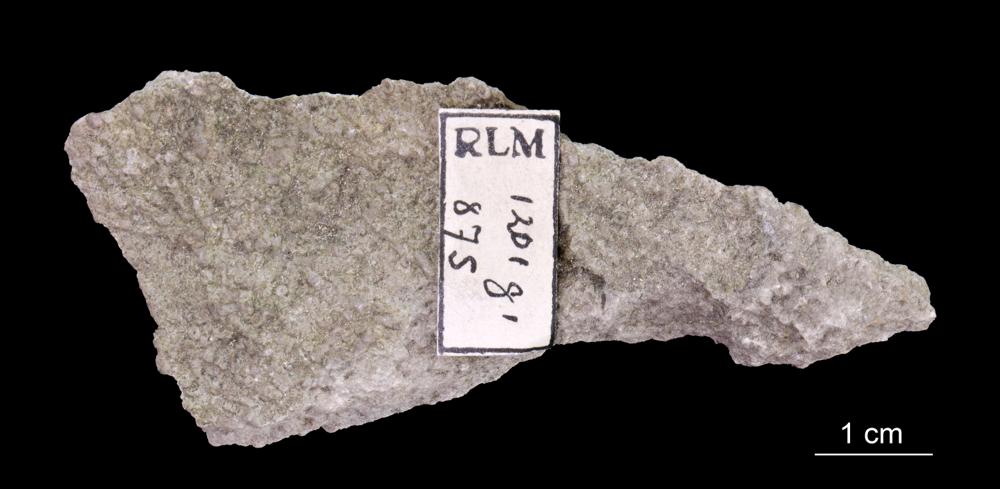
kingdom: Animalia
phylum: Annelida
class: Polychaeta
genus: Volborthella
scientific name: Volborthella tenuis
